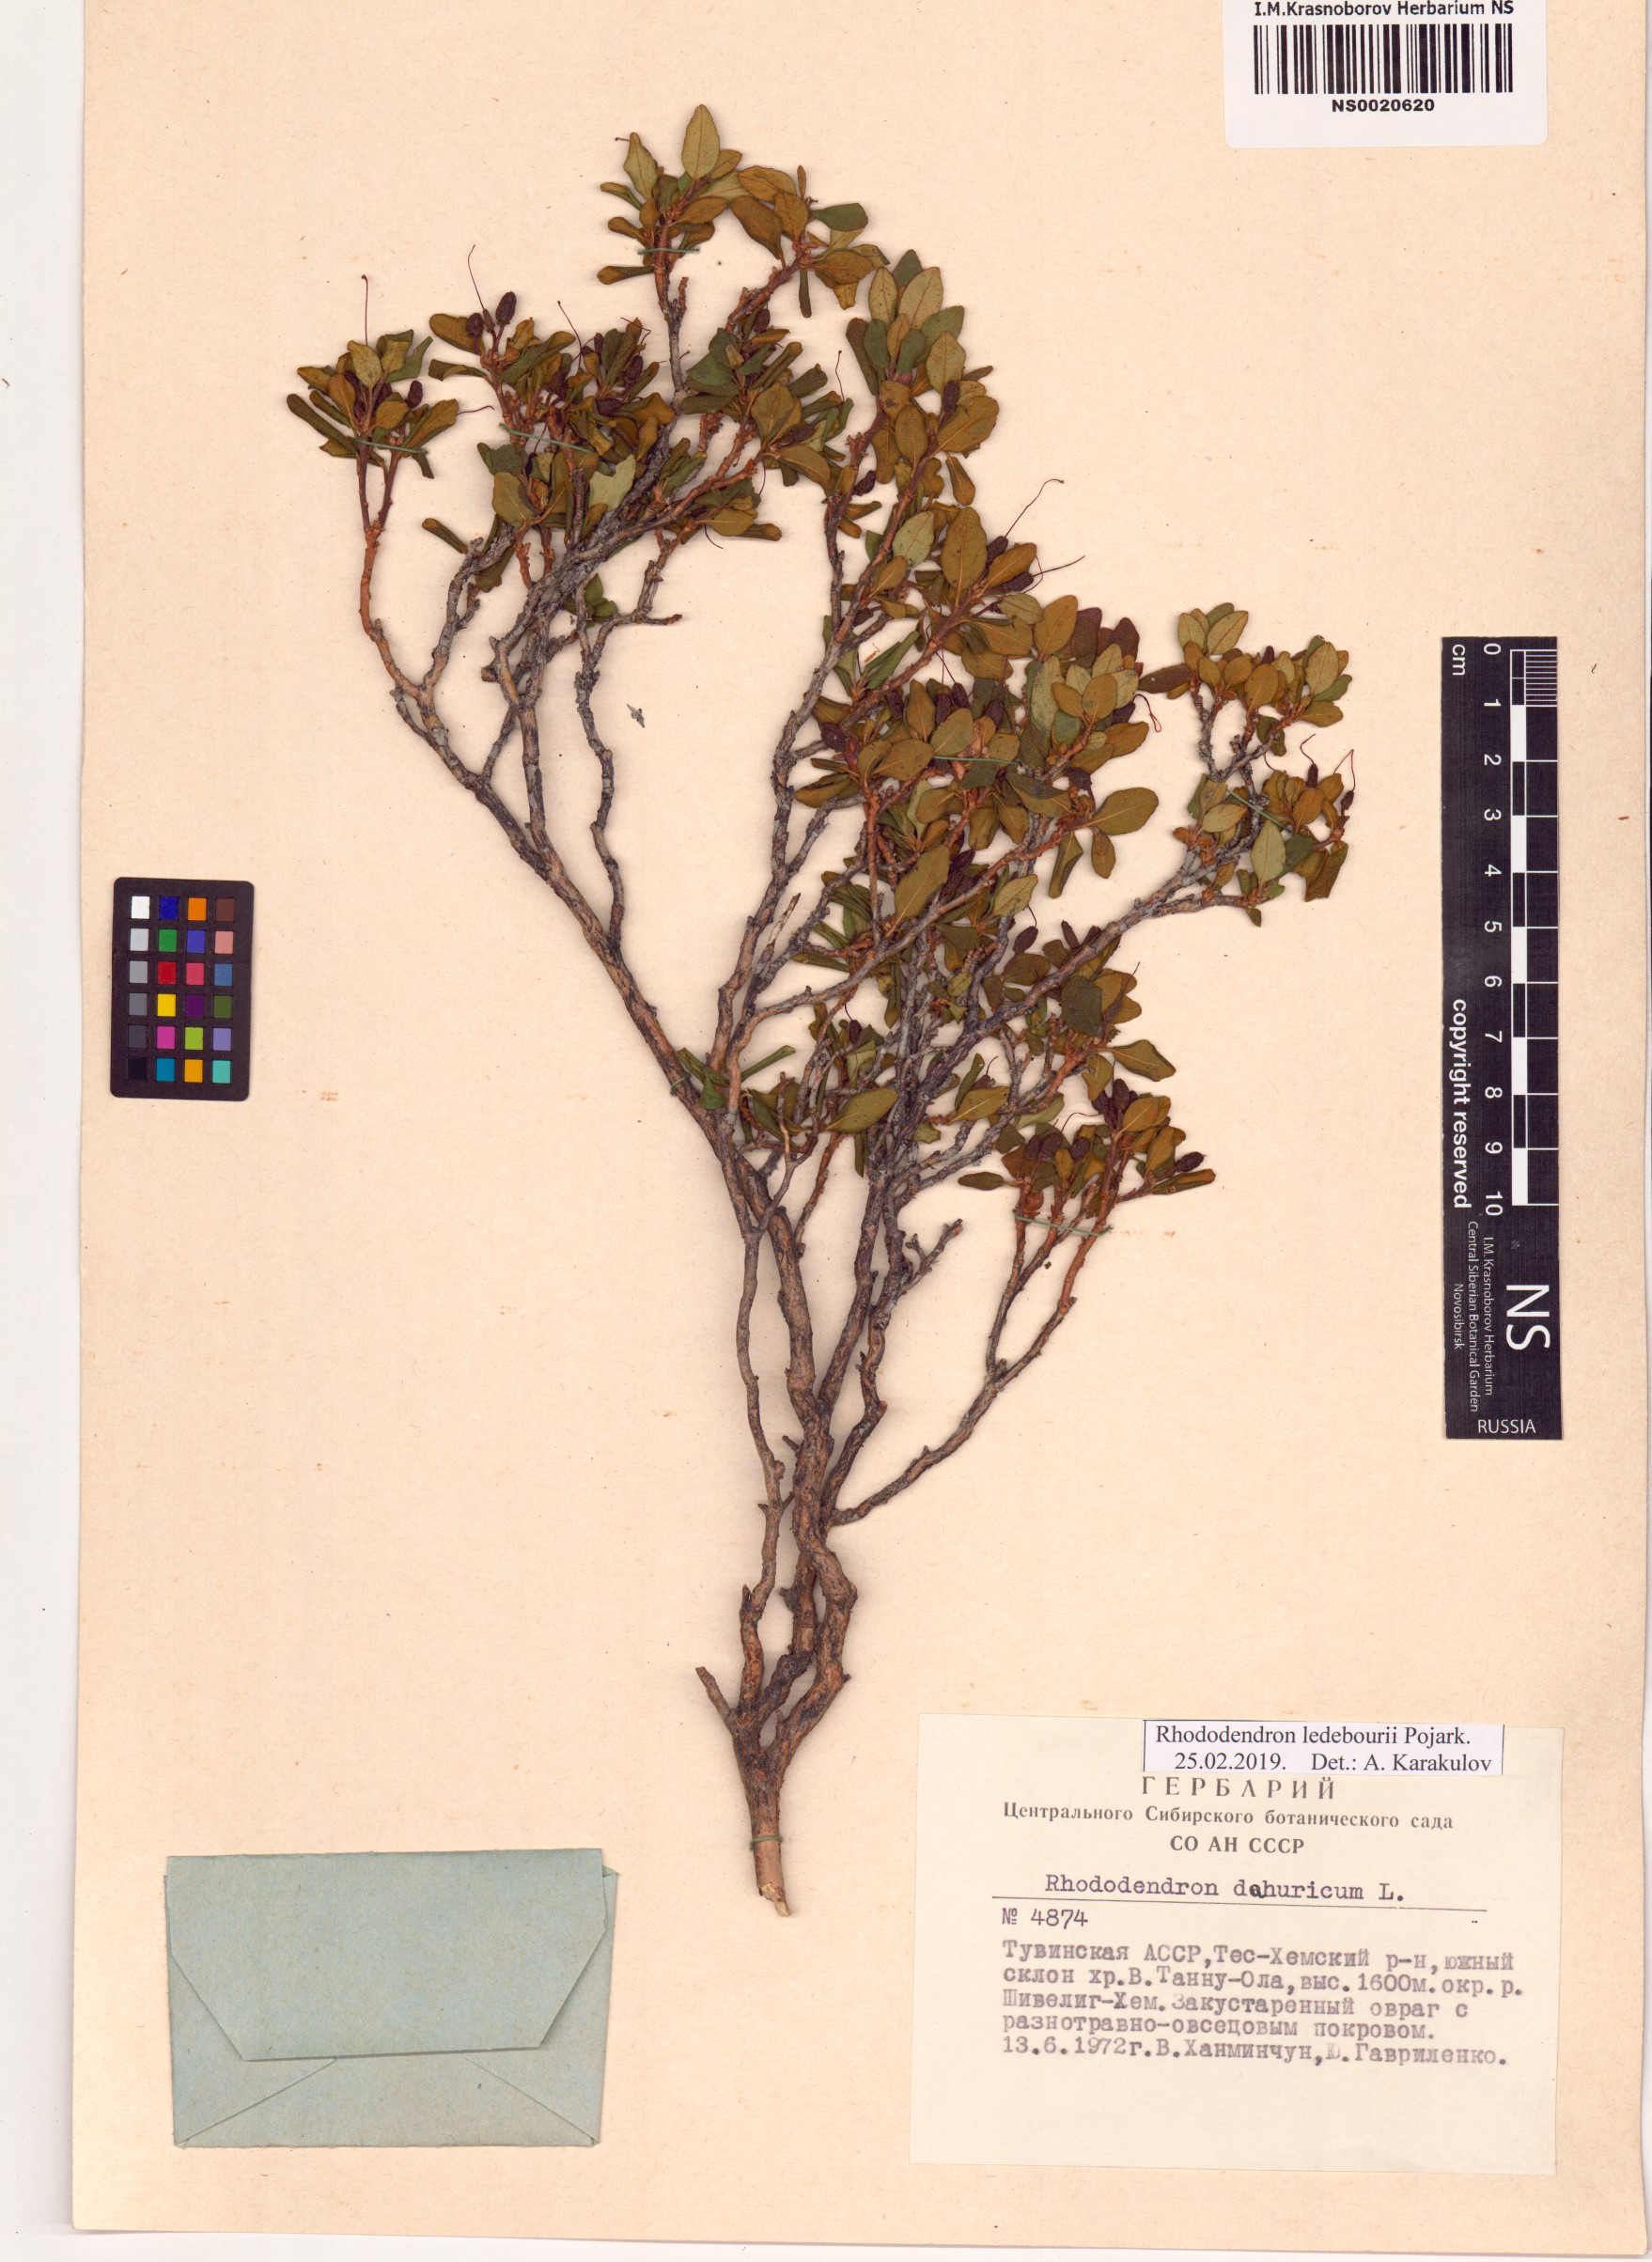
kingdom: Plantae
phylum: Tracheophyta
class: Magnoliopsida
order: Ericales
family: Ericaceae
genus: Rhododendron
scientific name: Rhododendron dauricum
